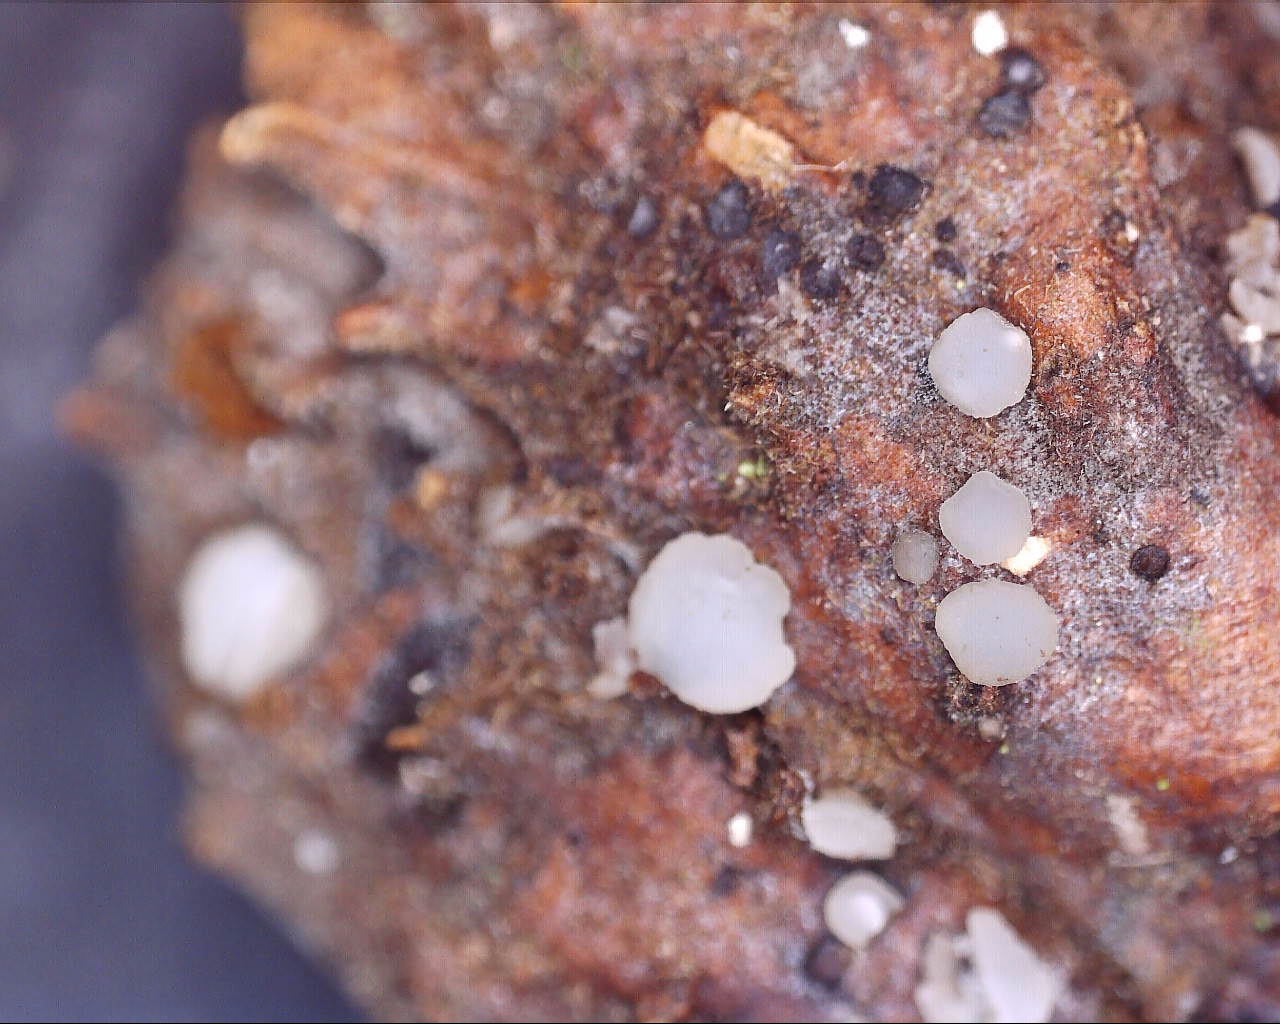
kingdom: Fungi
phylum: Ascomycota
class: Leotiomycetes
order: Helotiales
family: Helotiaceae
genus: Hymenoscyphus
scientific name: Hymenoscyphus fagineus
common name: vellugtende stilkskive
